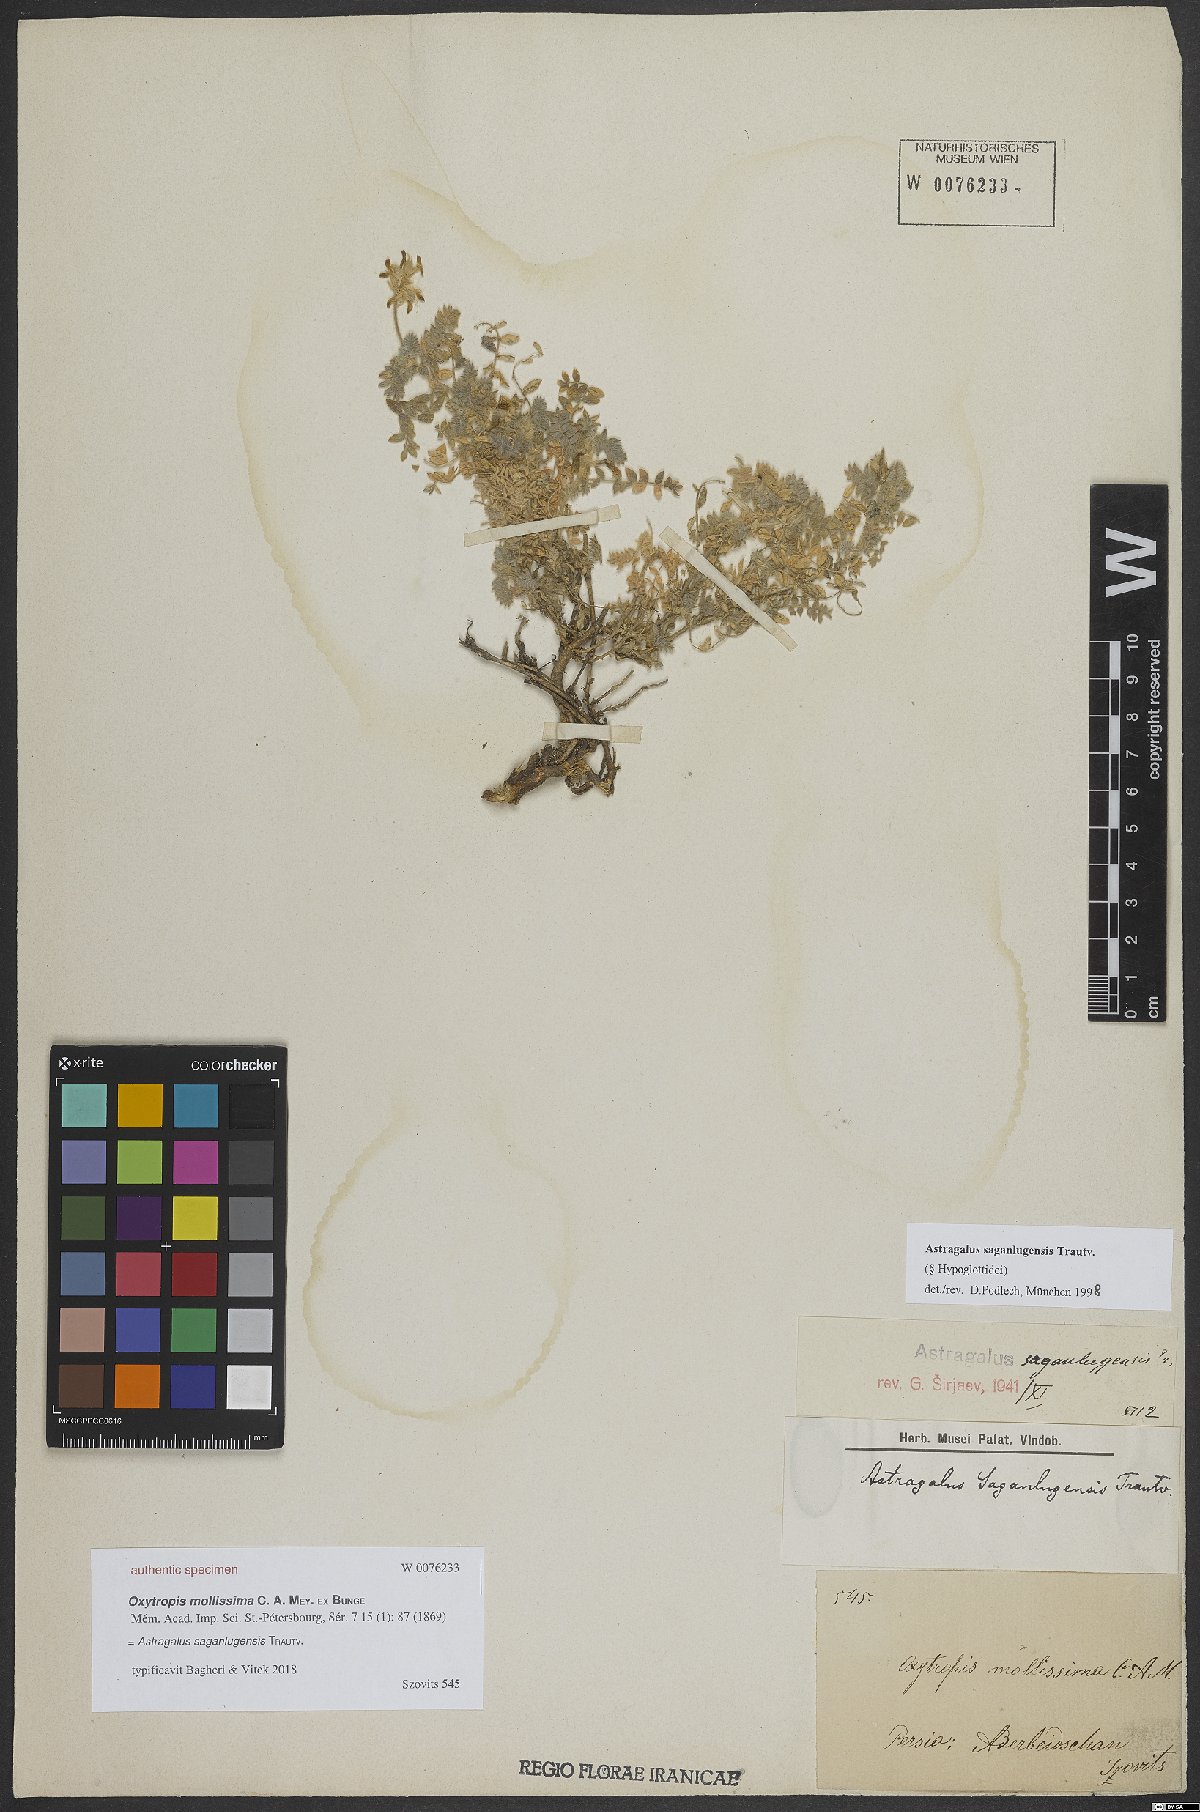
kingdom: Plantae
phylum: Tracheophyta
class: Magnoliopsida
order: Fabales
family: Fabaceae
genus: Astragalus
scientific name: Astragalus saganlugensis
